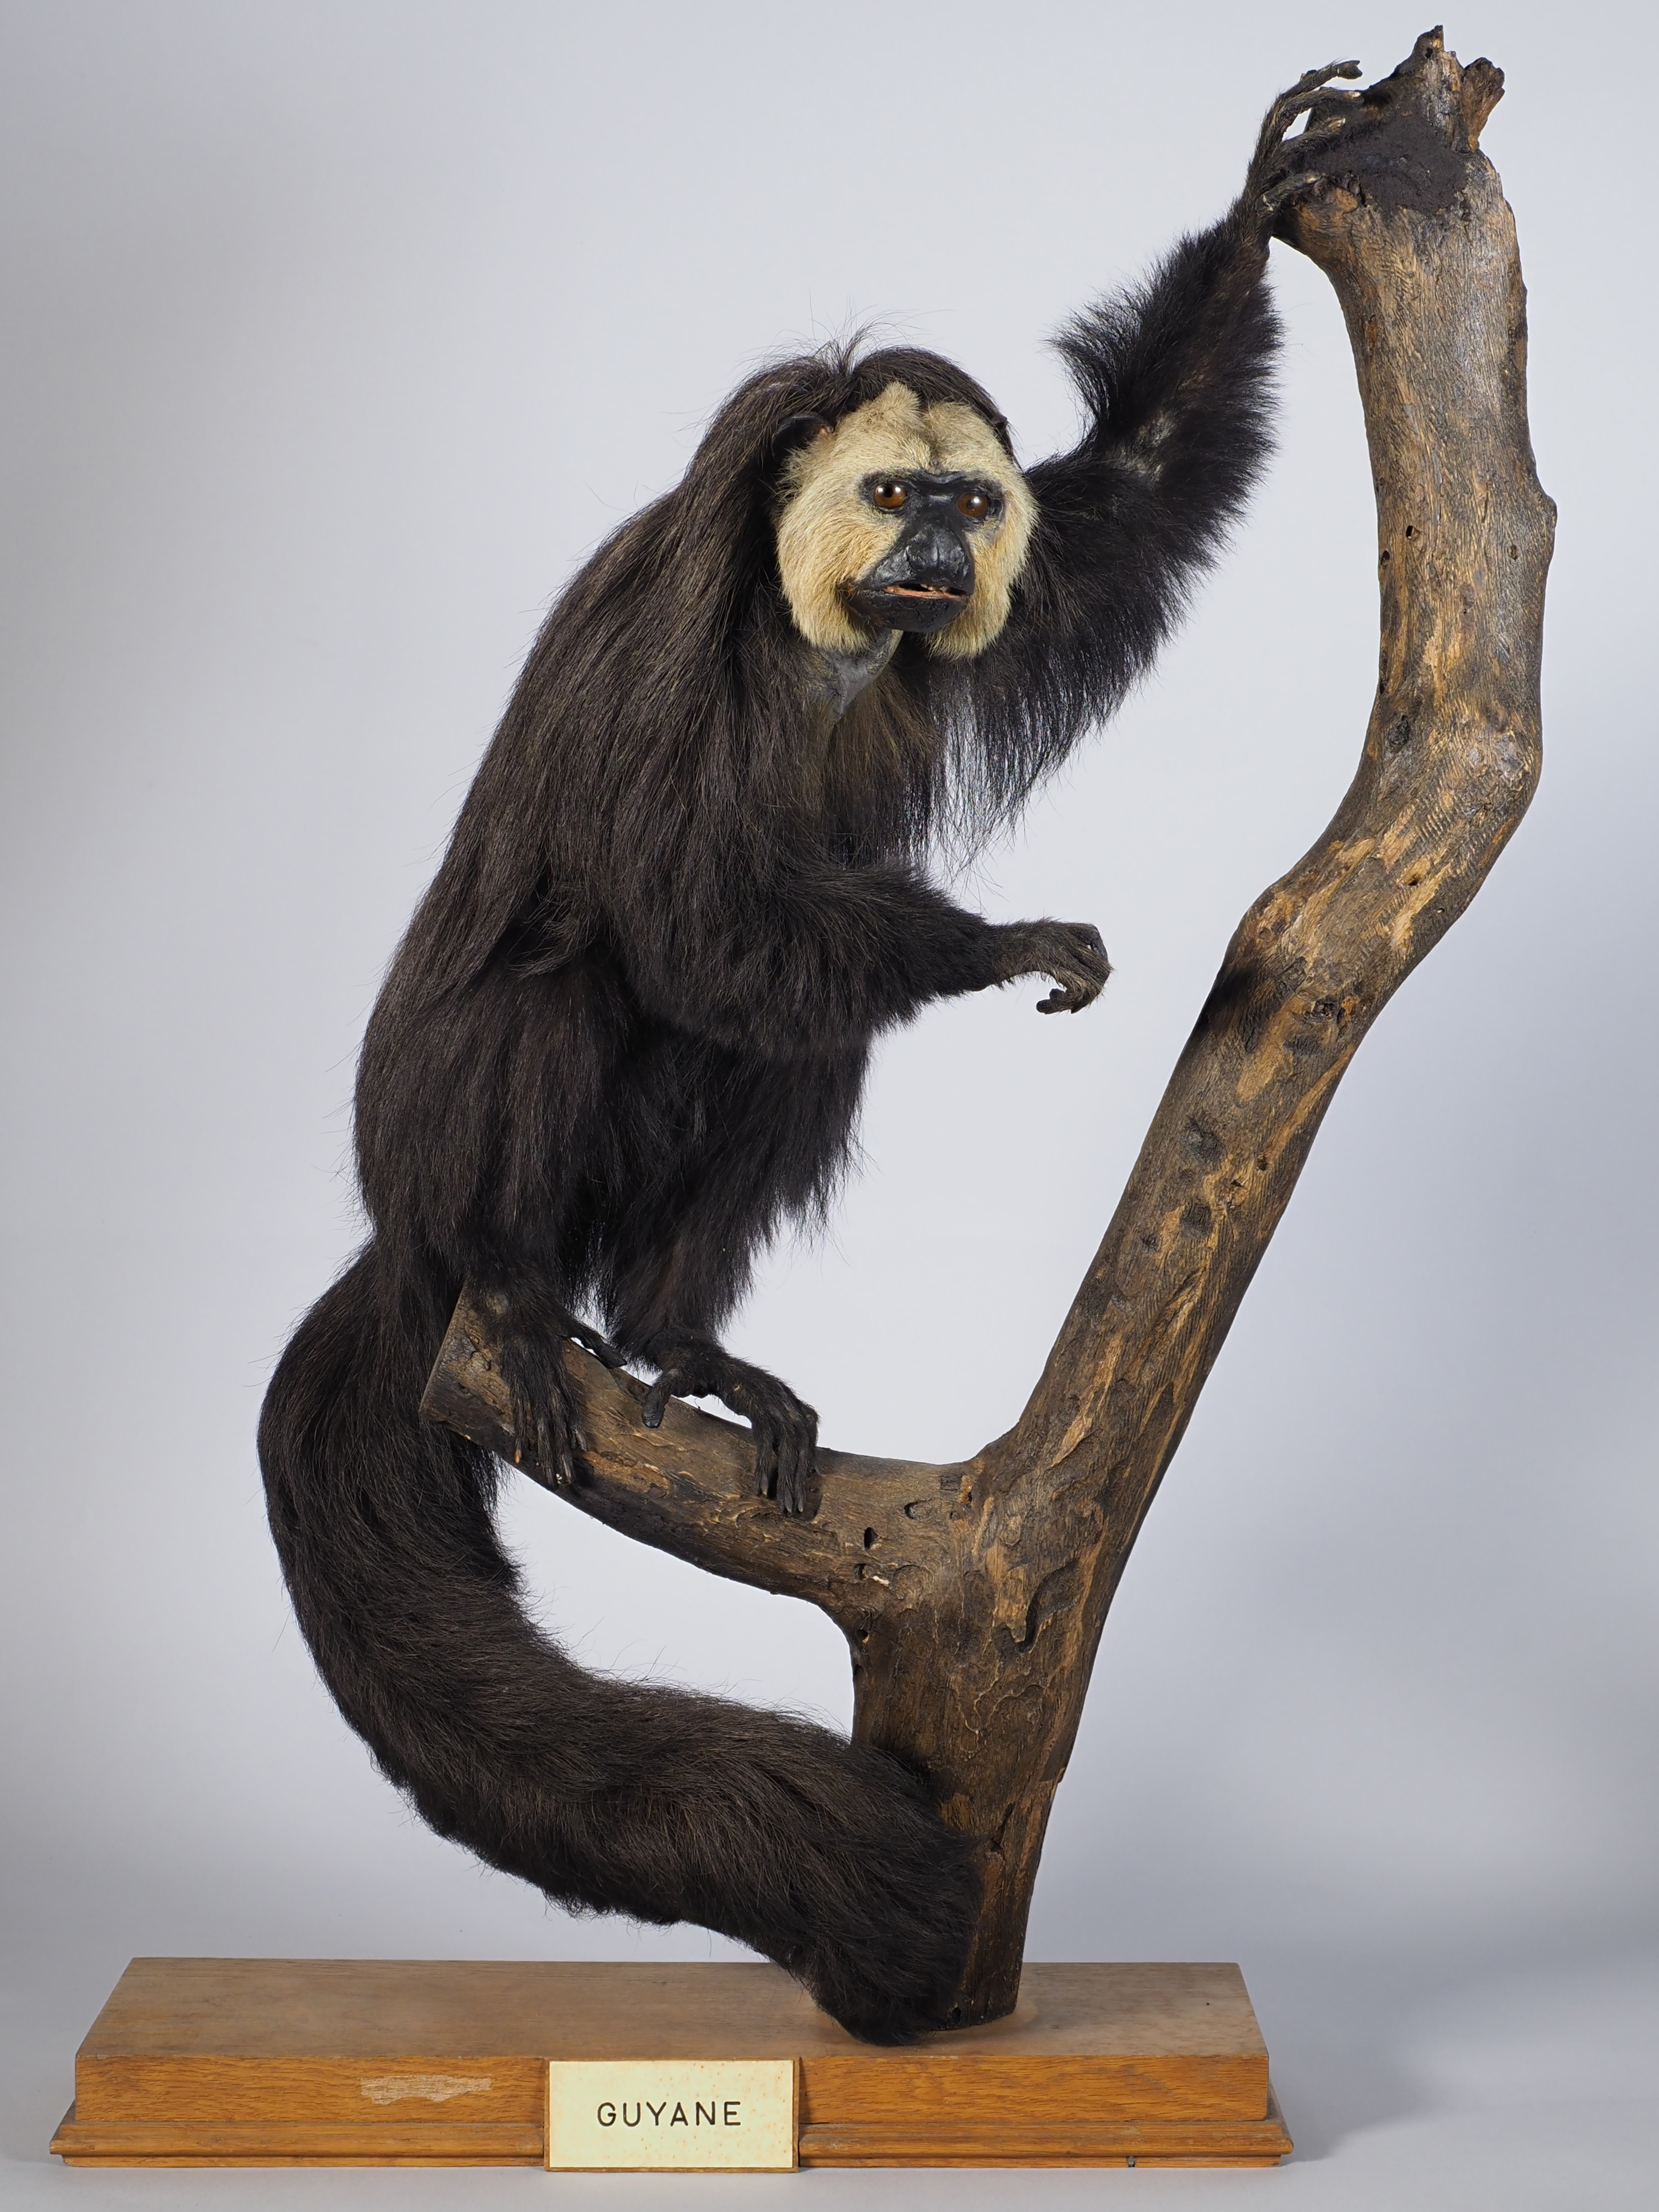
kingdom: Animalia
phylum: Chordata
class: Mammalia
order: Primates
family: Pitheciidae
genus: Pithecia
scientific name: Pithecia pithecia
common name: White-faced saki
